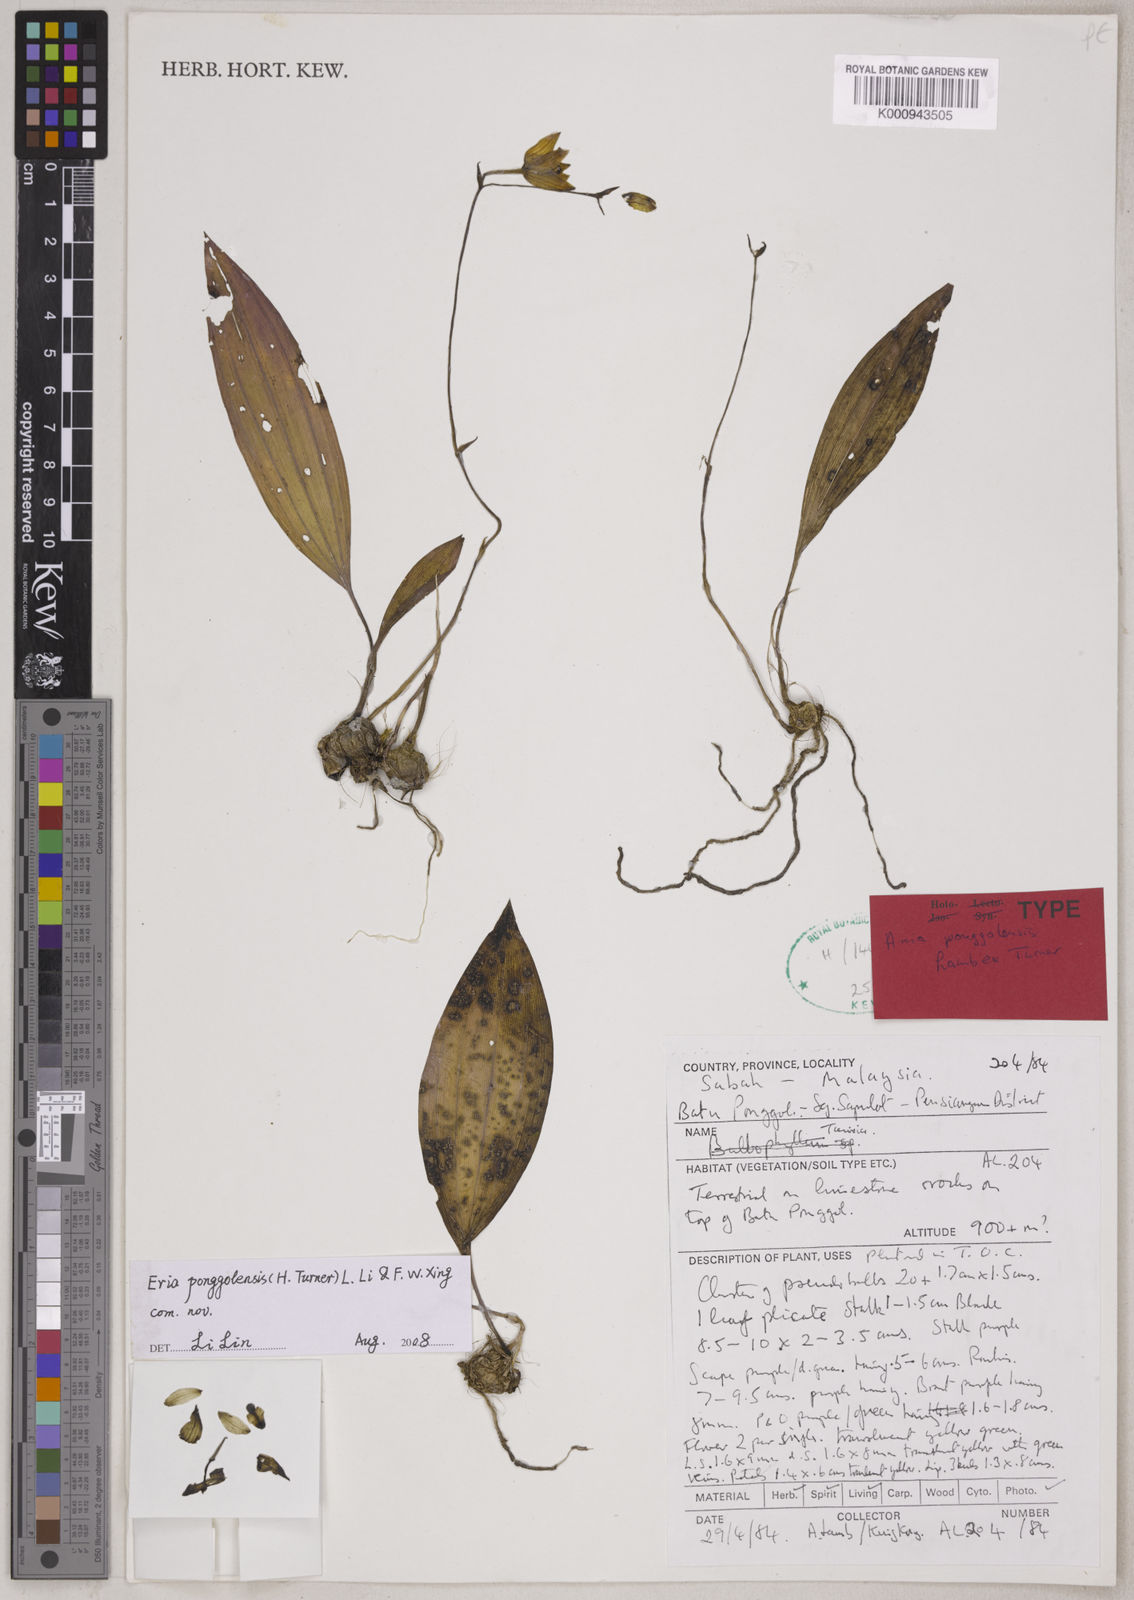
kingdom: Plantae
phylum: Tracheophyta
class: Liliopsida
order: Asparagales
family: Orchidaceae
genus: Ania
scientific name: Ania
